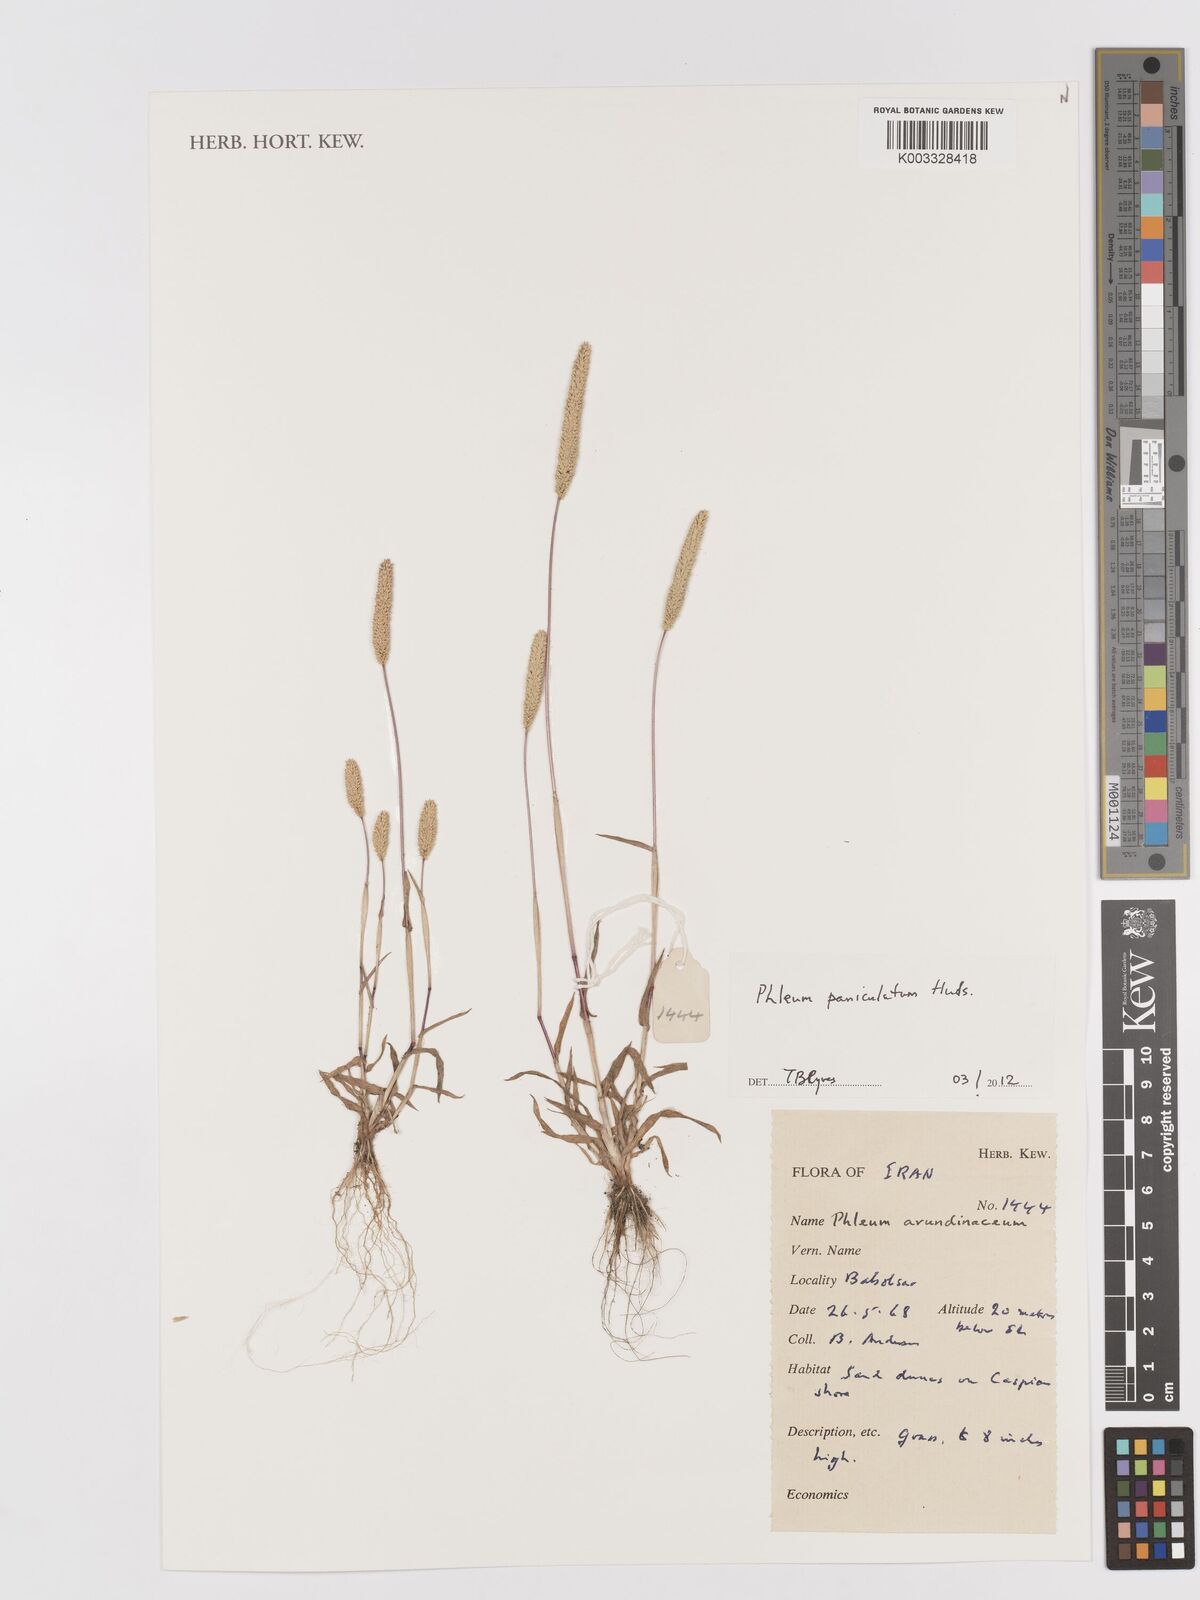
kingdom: Plantae
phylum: Tracheophyta
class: Liliopsida
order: Poales
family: Poaceae
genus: Phleum
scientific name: Phleum paniculatum
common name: British timothy
